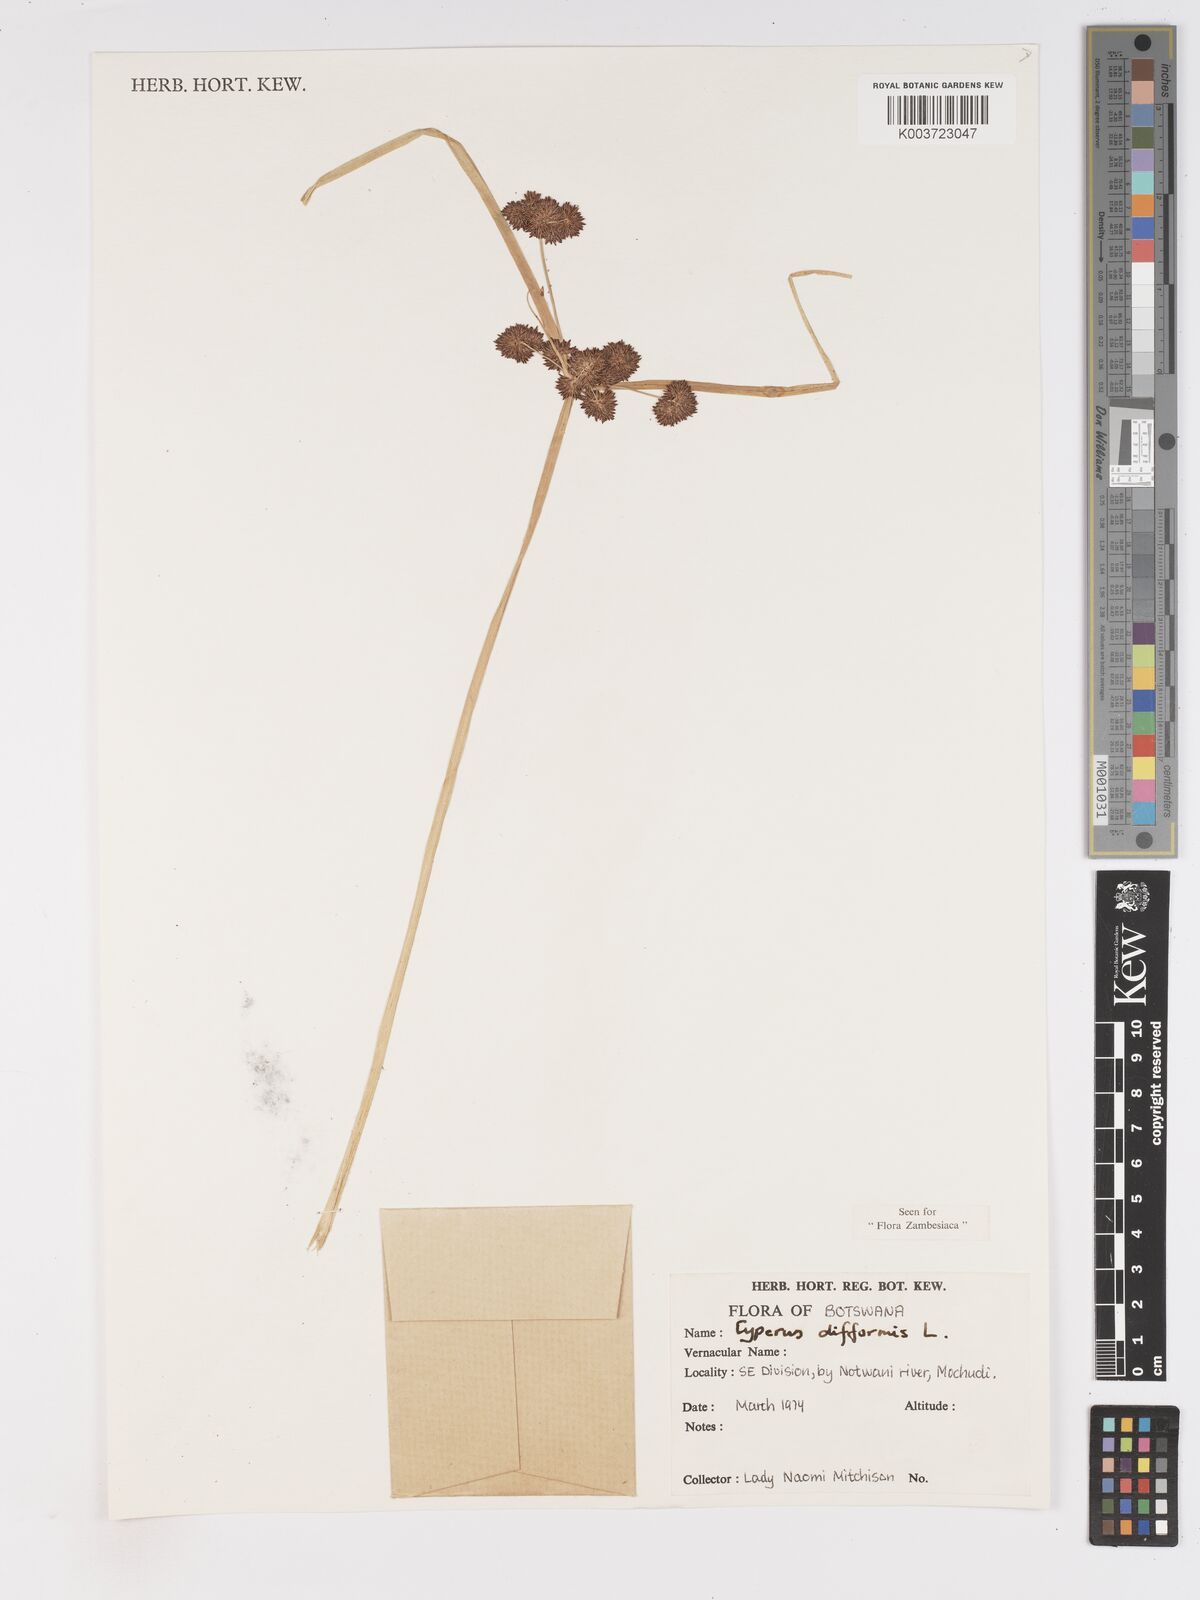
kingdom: Plantae
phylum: Tracheophyta
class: Liliopsida
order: Poales
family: Cyperaceae
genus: Cyperus
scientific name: Cyperus difformis
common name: Variable flatsedge
